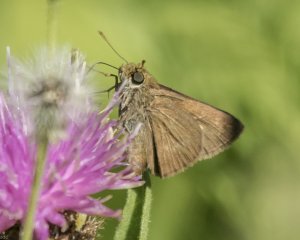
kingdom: Animalia
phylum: Arthropoda
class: Insecta
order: Lepidoptera
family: Hesperiidae
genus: Euphyes
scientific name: Euphyes vestris
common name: Dun Skipper
